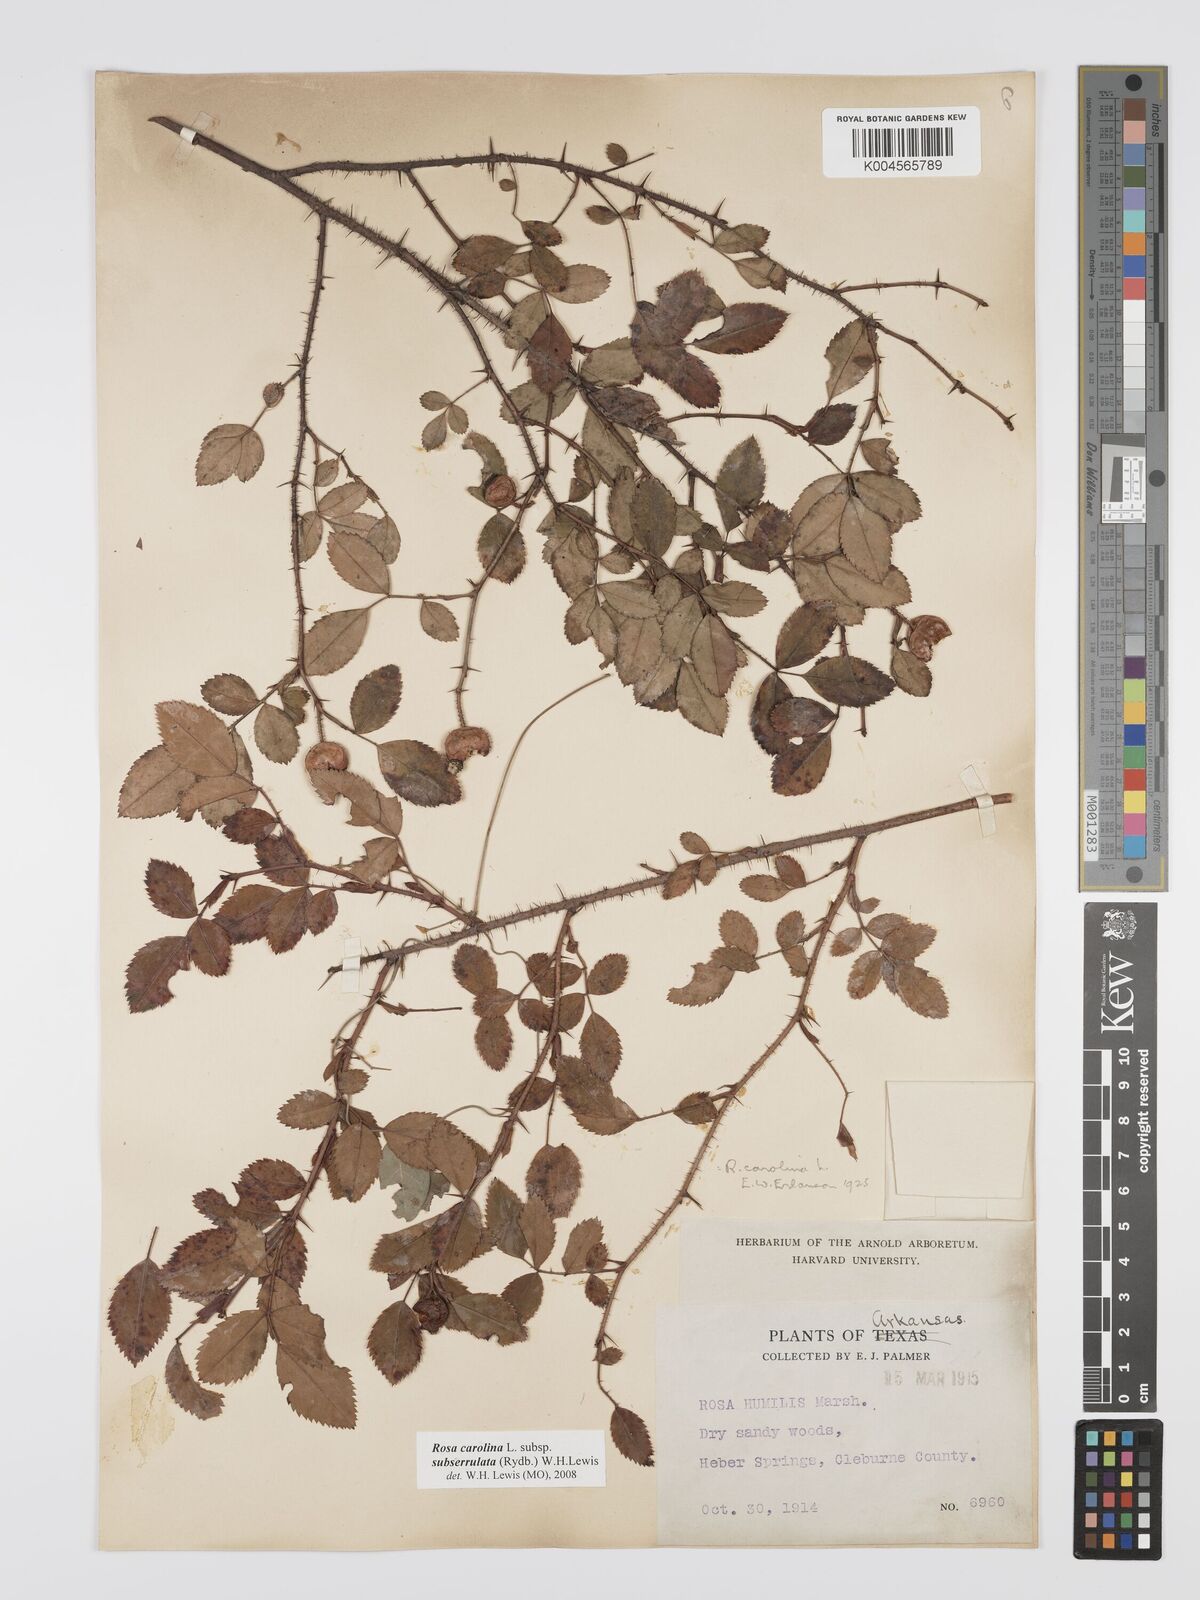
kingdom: Plantae
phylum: Tracheophyta
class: Magnoliopsida
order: Rosales
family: Rosaceae
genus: Rosa
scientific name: Rosa carolina
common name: Pasture rose
